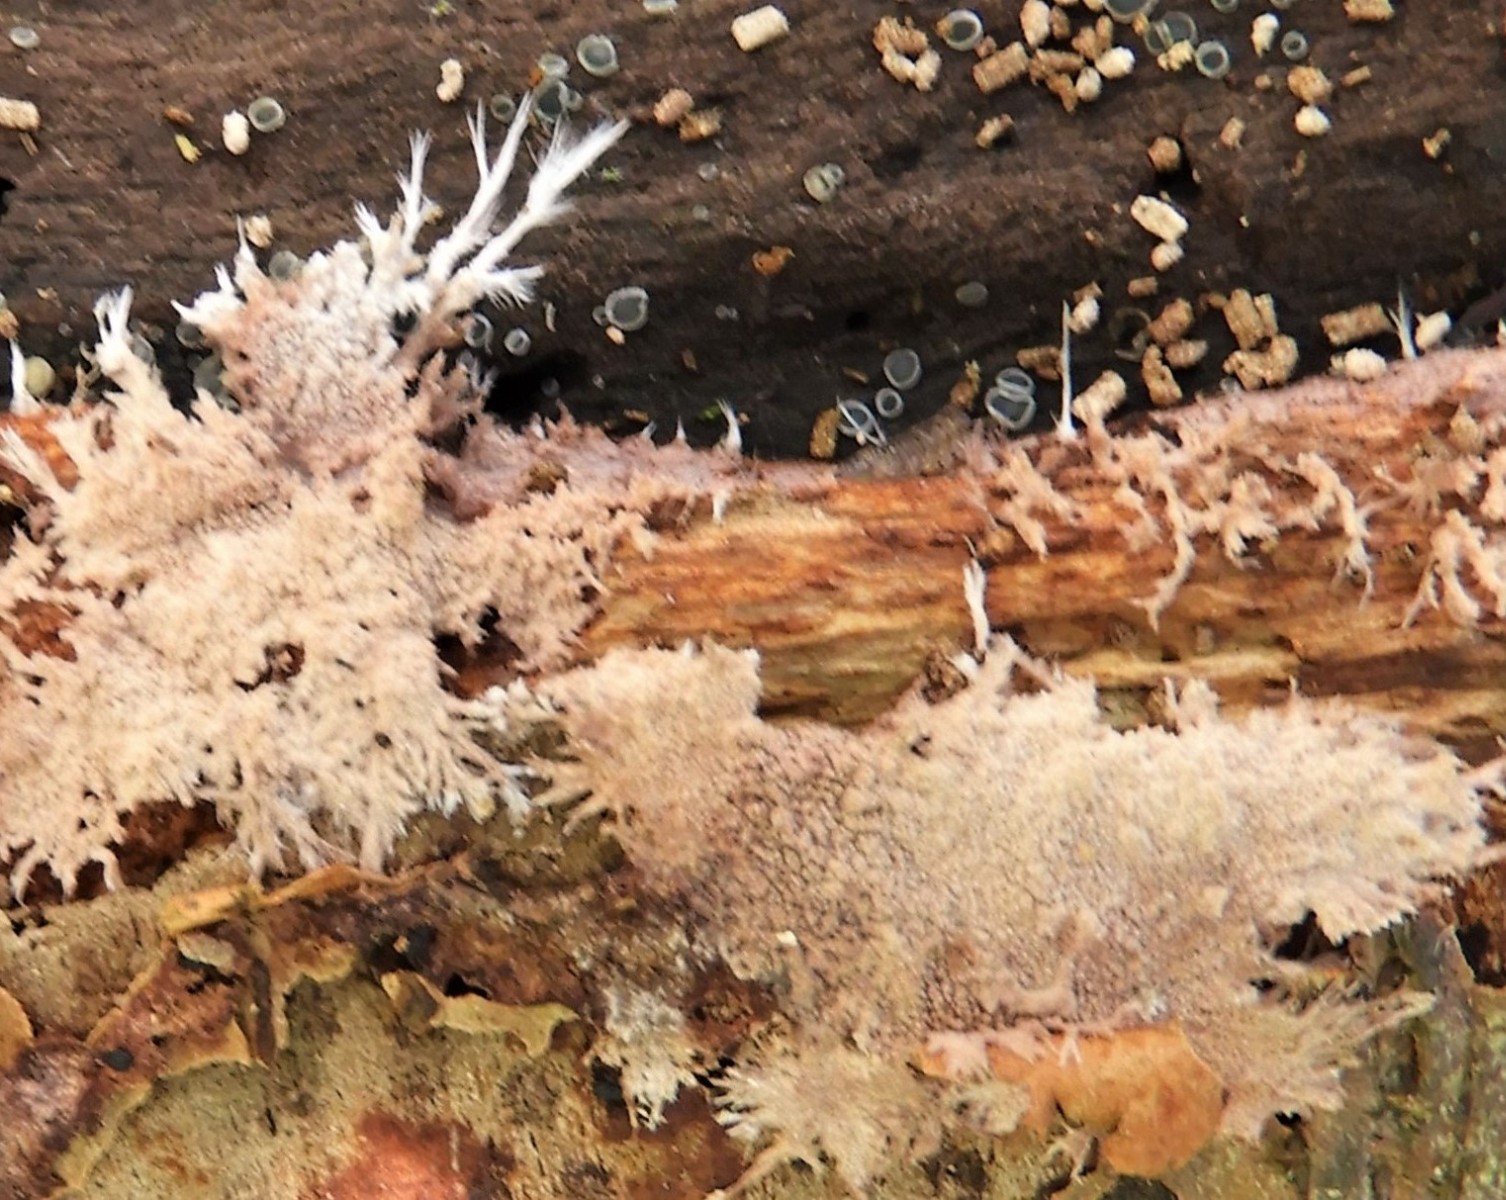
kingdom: Fungi
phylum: Basidiomycota
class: Agaricomycetes
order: Polyporales
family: Steccherinaceae
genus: Steccherinum
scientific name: Steccherinum fimbriatum
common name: trådet skønpig
